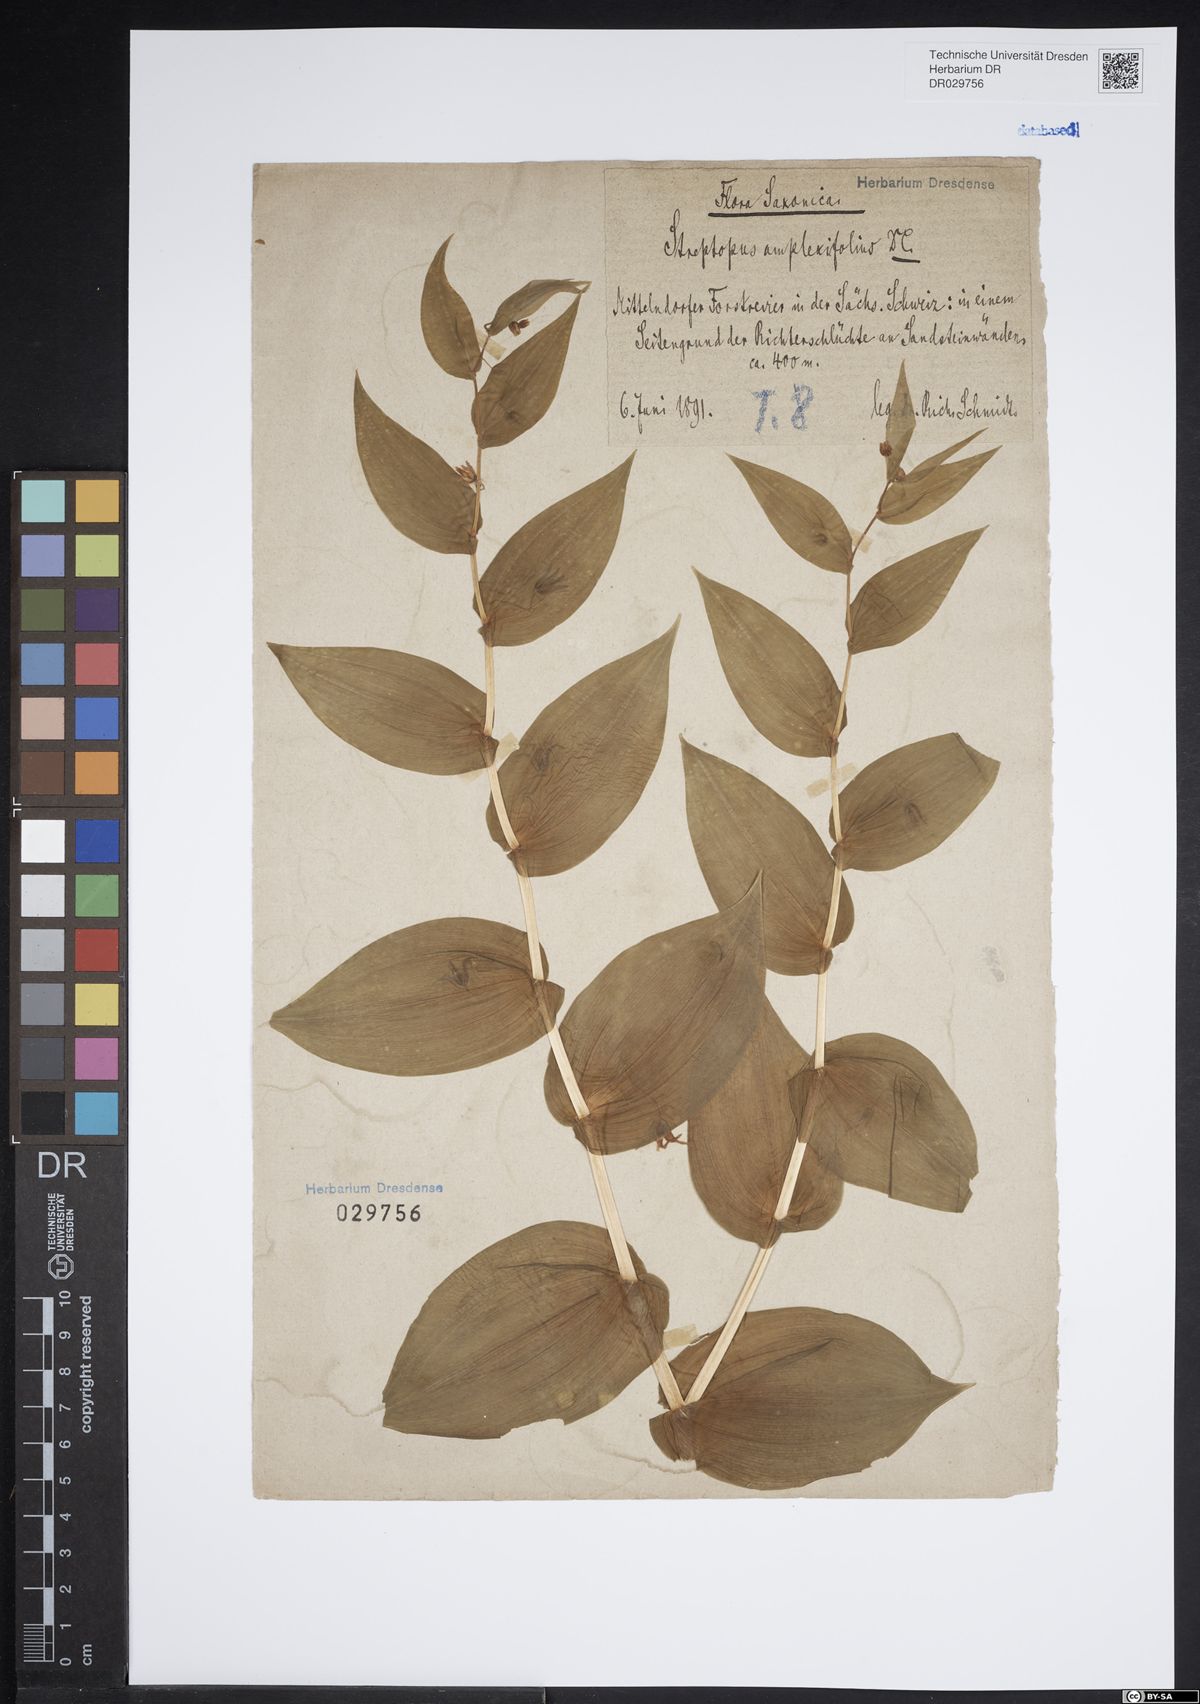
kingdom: Plantae
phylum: Tracheophyta
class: Liliopsida
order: Liliales
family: Liliaceae
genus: Streptopus
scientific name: Streptopus amplexifolius
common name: Clasp twisted stalk
